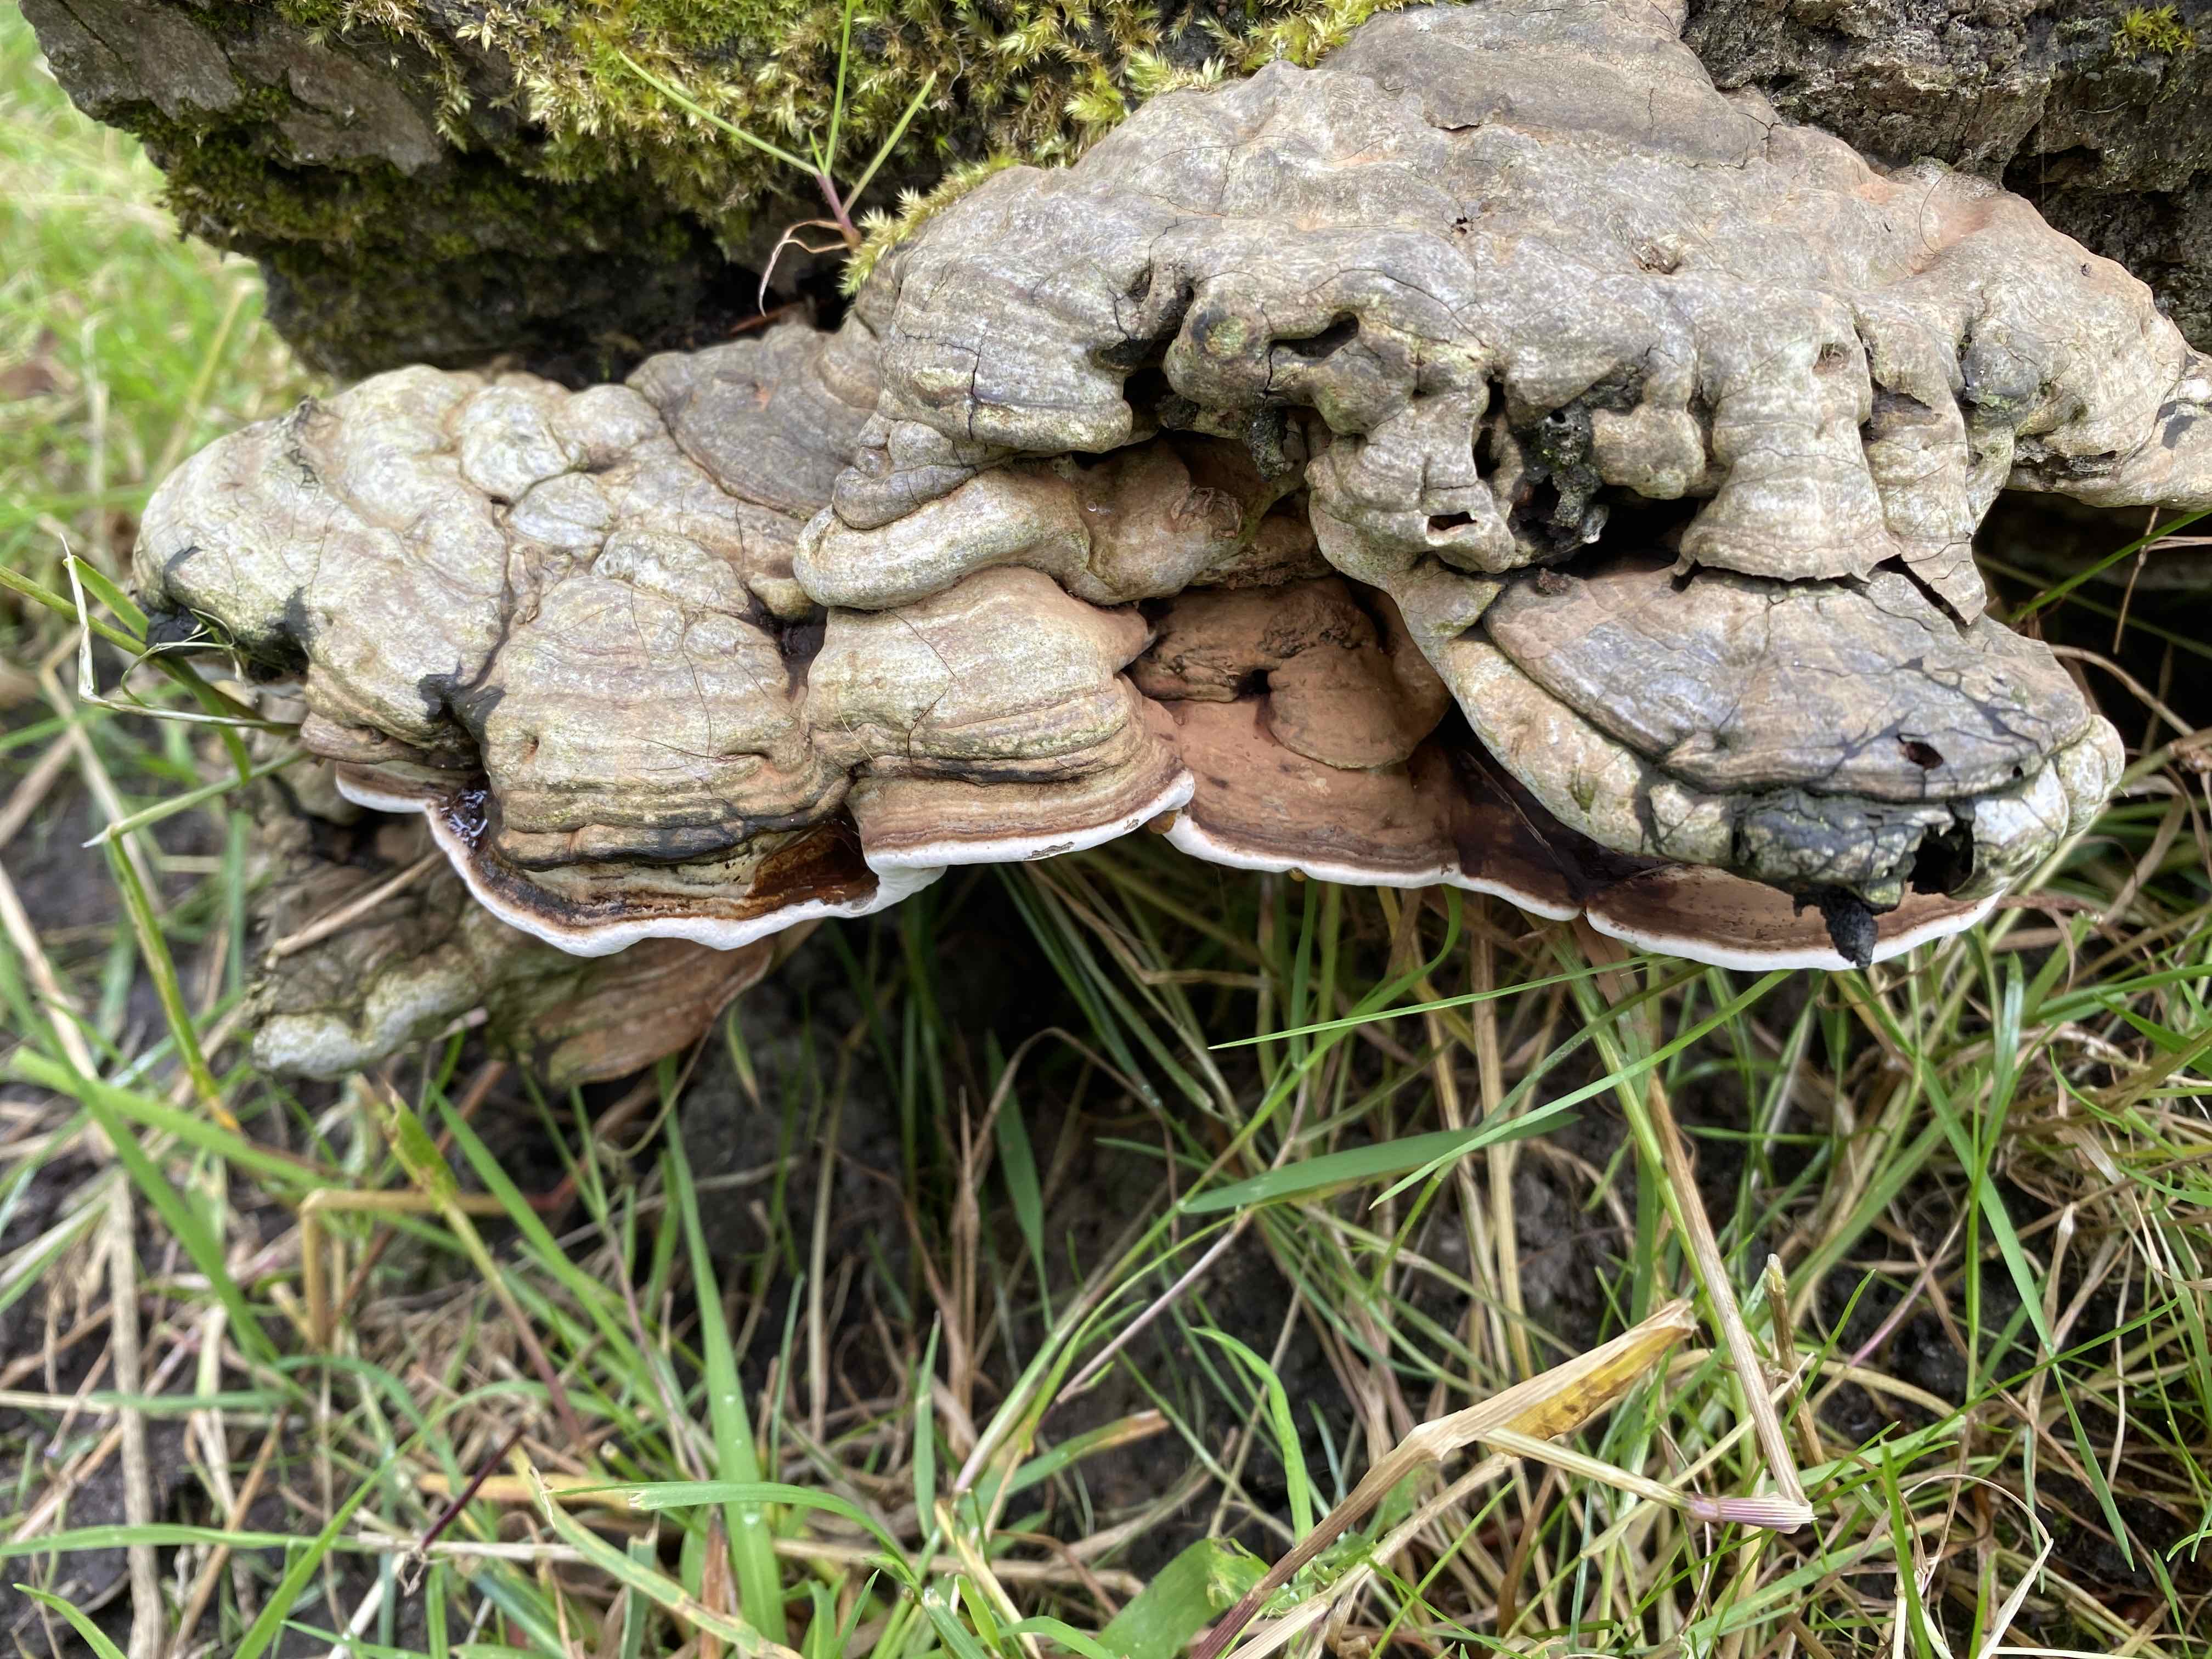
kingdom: Fungi
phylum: Basidiomycota
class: Agaricomycetes
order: Polyporales
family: Polyporaceae
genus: Ganoderma
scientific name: Ganoderma applanatum
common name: flad lakporesvamp
